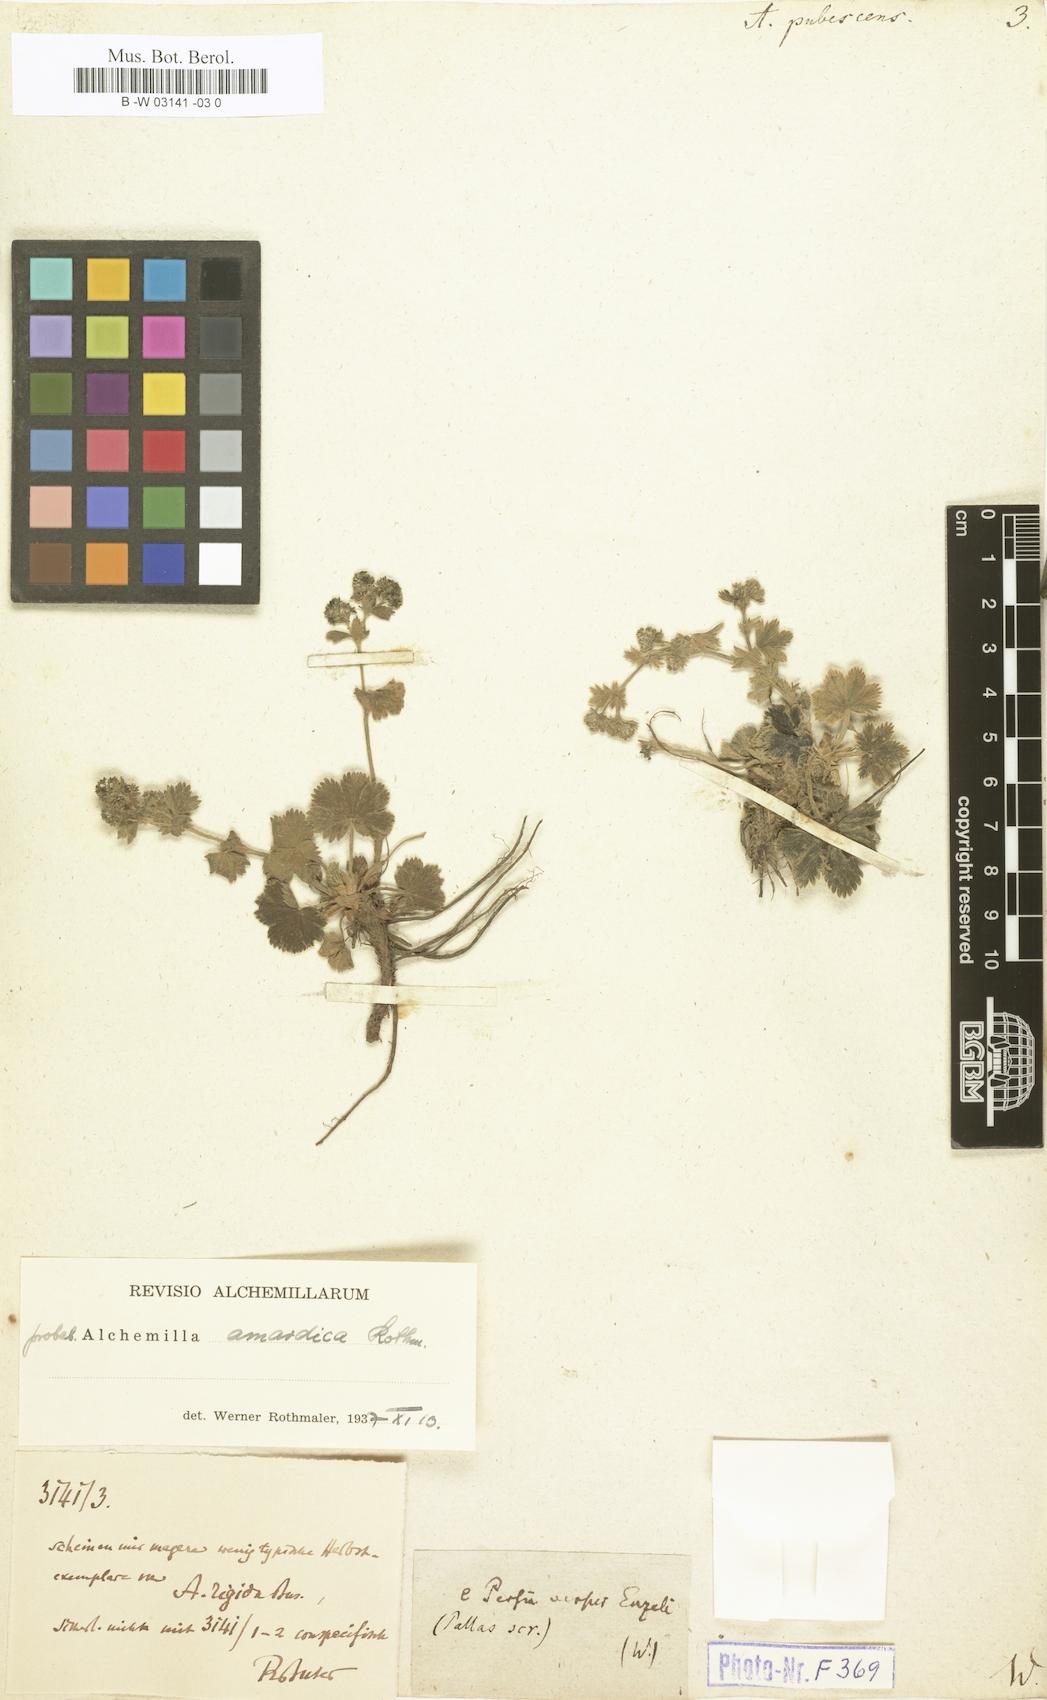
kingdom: Plantae
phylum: Tracheophyta
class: Magnoliopsida
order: Rosales
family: Rosaceae
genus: Alchemilla
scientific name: Alchemilla hybrida
